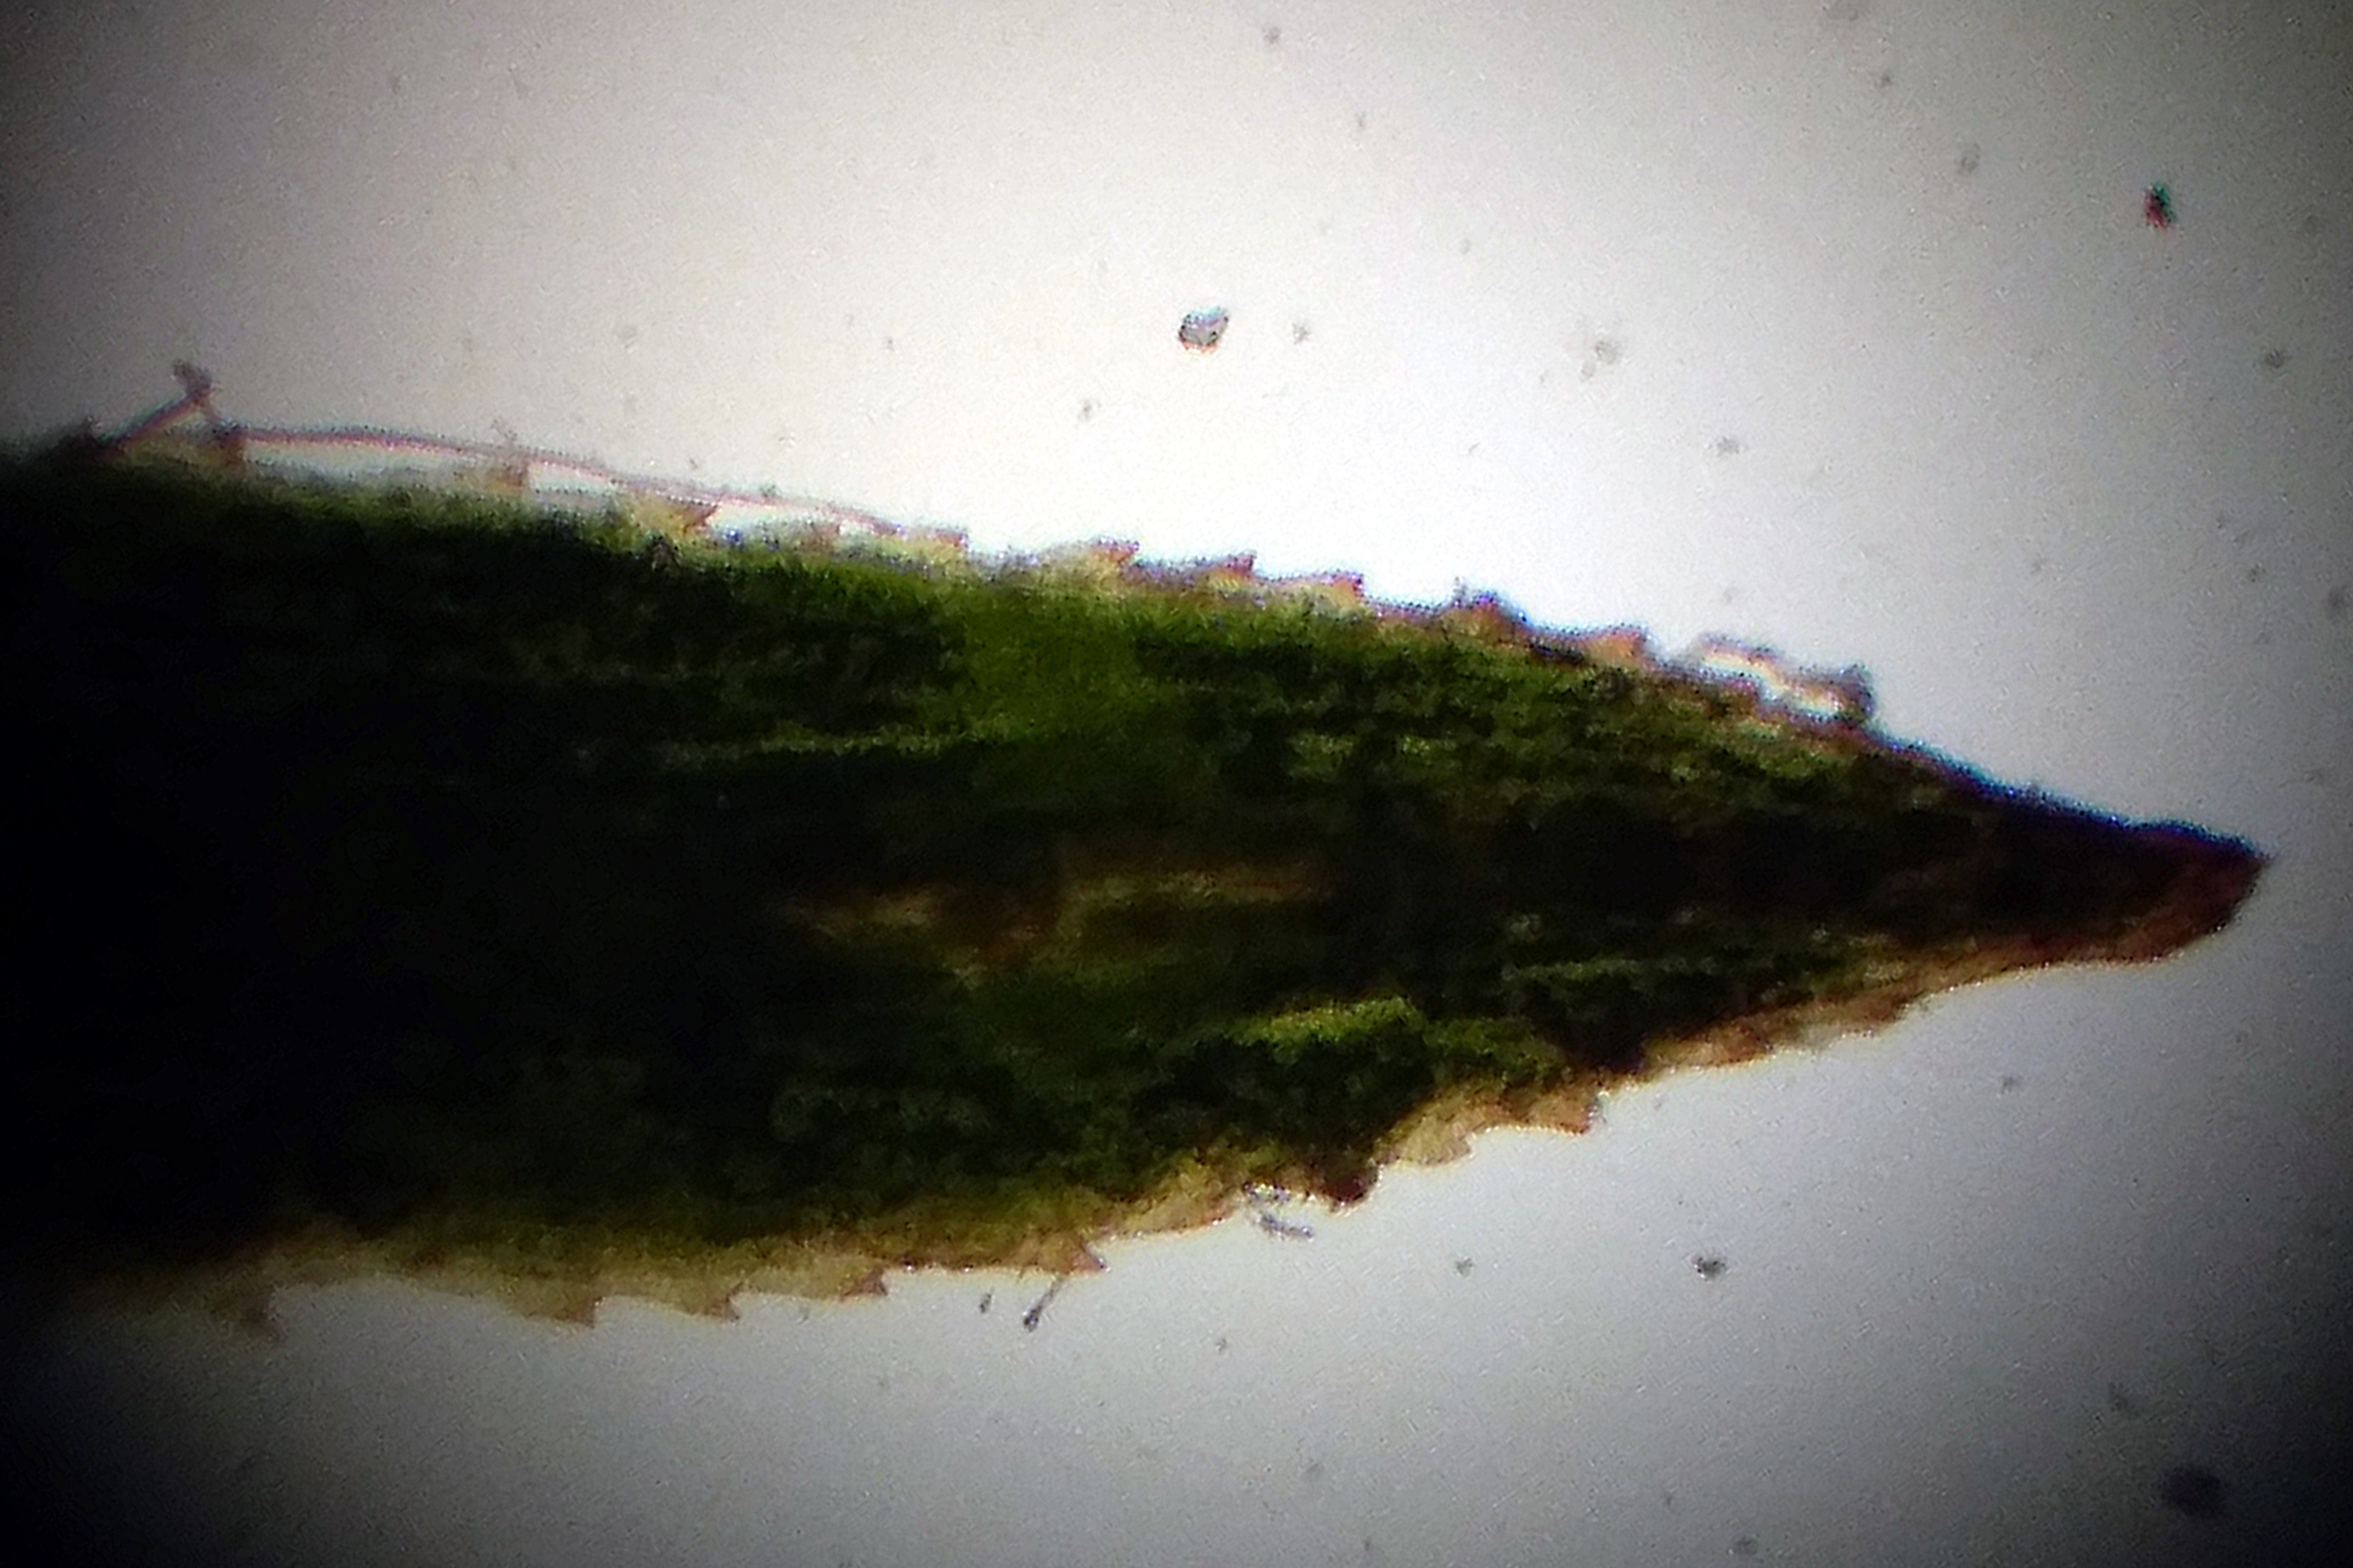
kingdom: Plantae
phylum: Bryophyta
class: Polytrichopsida
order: Polytrichales
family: Polytrichaceae
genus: Pogonatum
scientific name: Pogonatum aloides
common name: Smal urnekapsel
